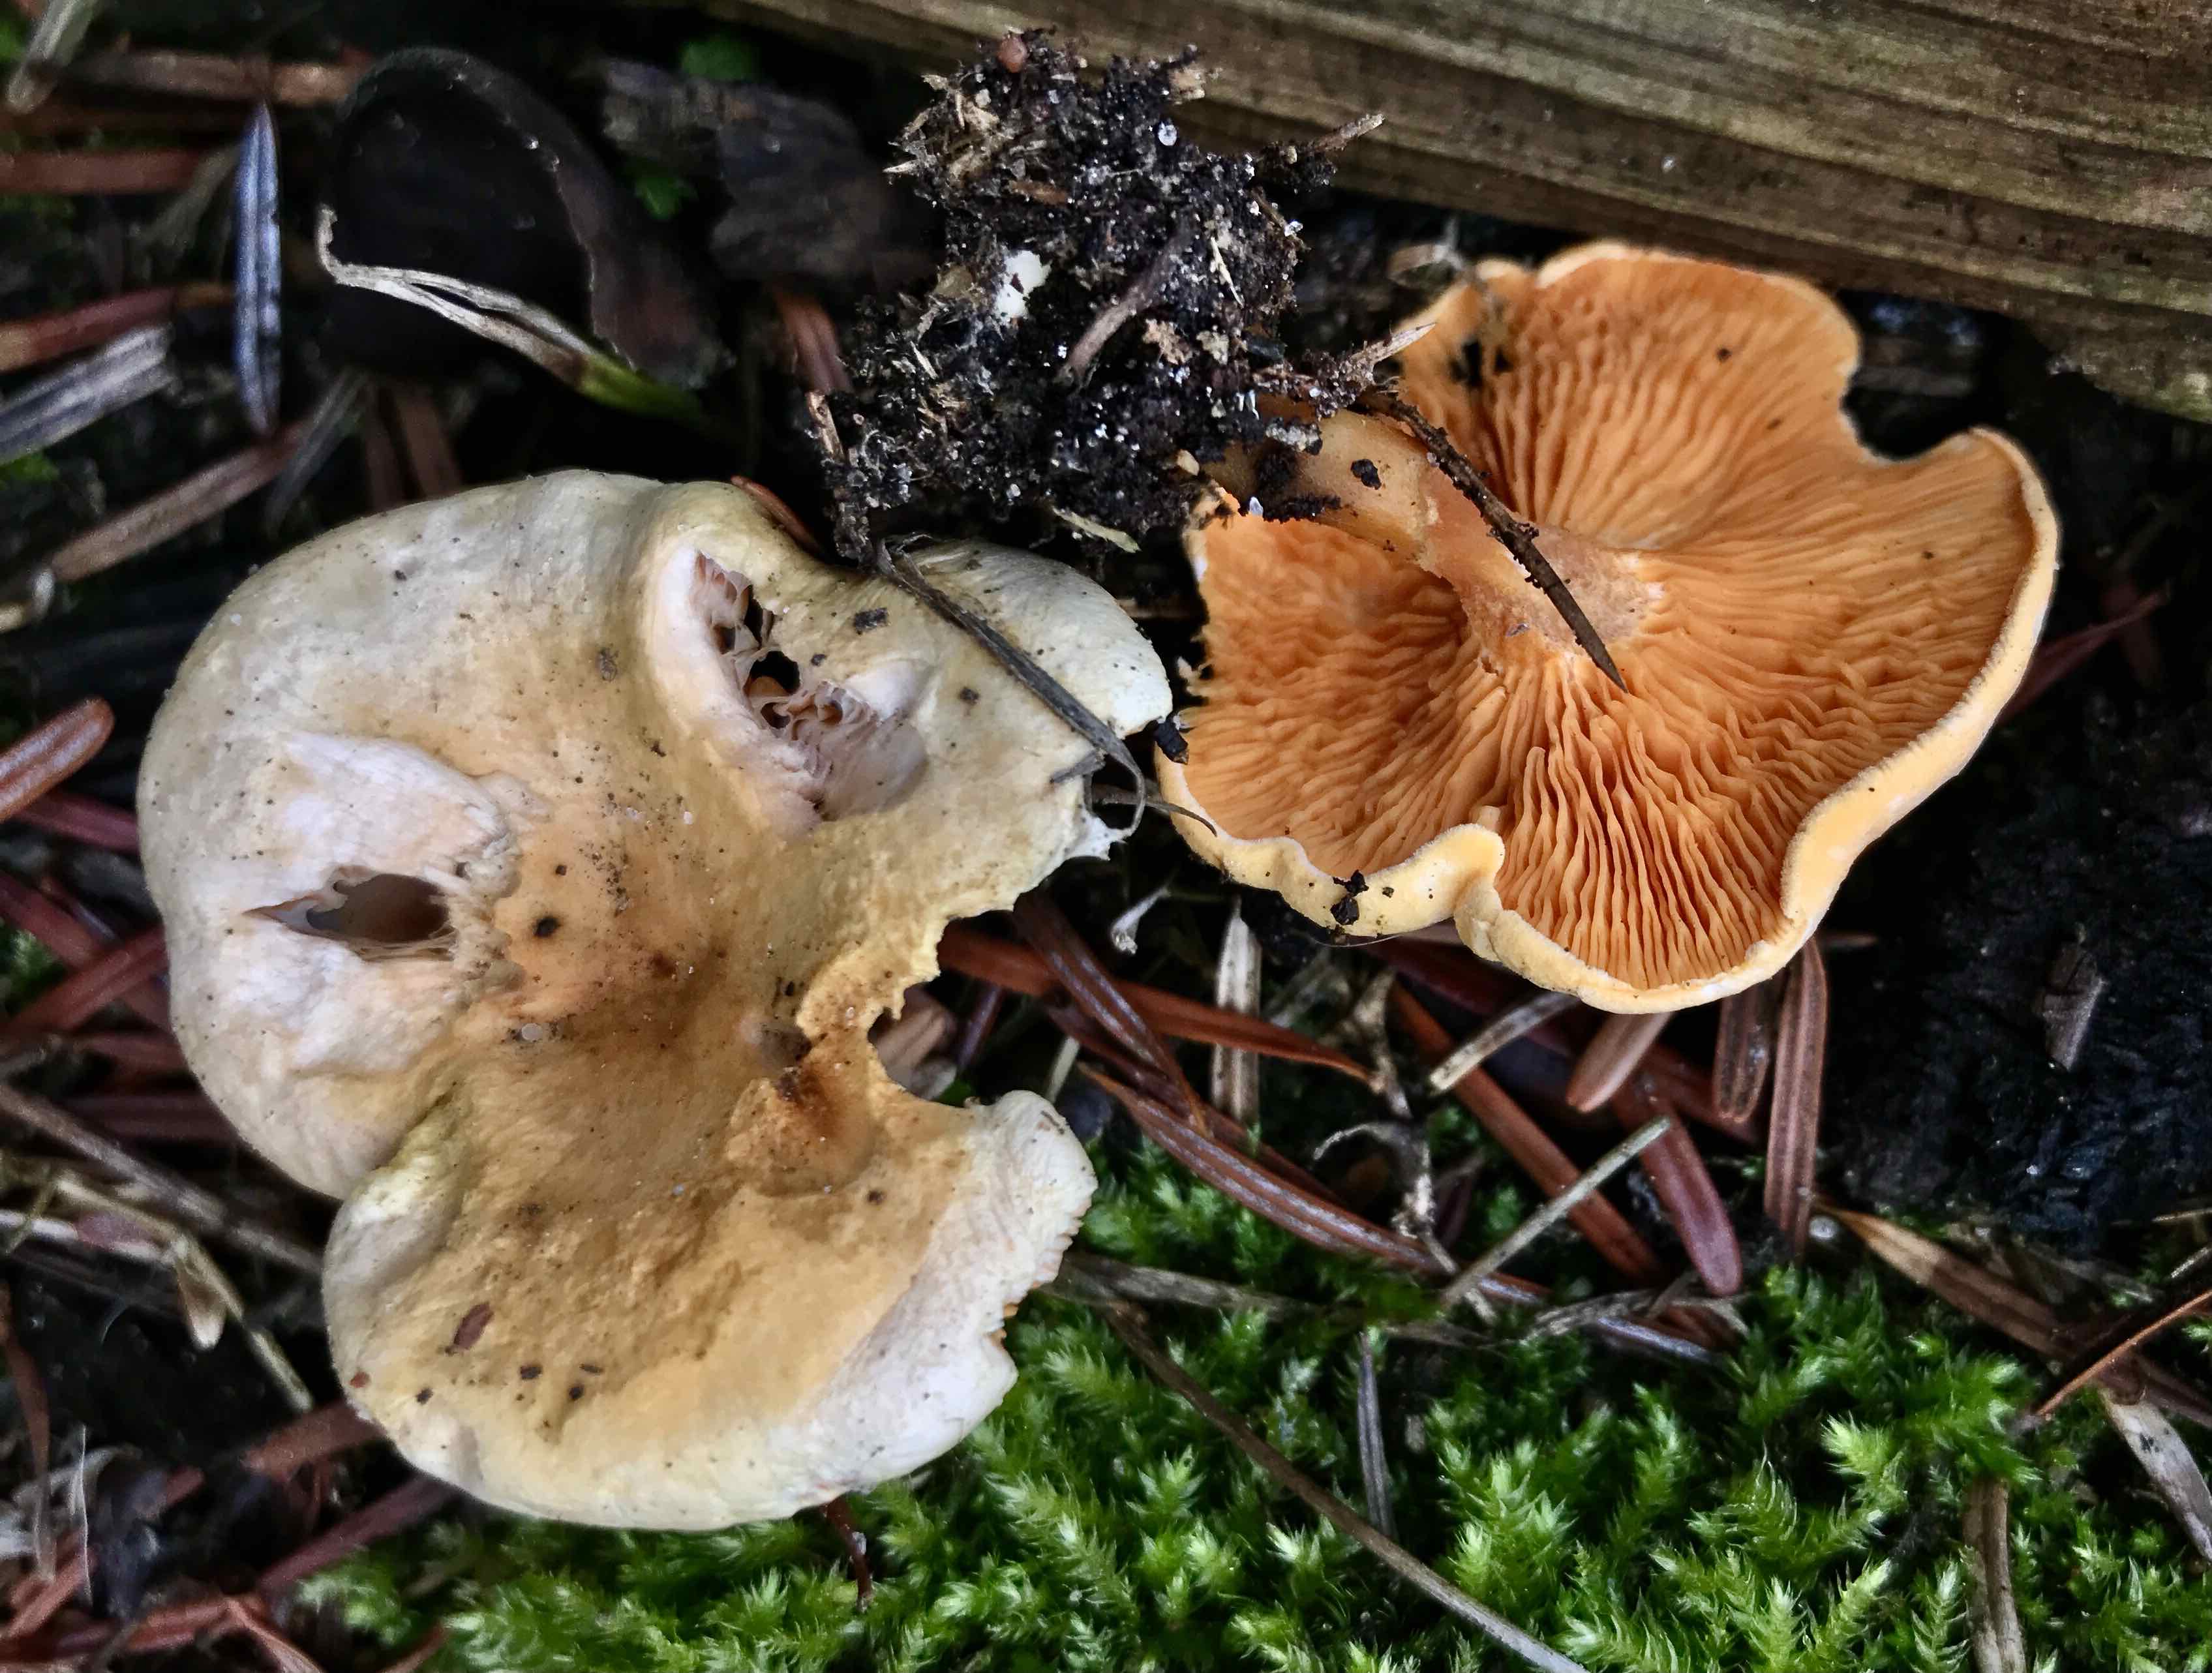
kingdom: Fungi
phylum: Basidiomycota
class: Agaricomycetes
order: Boletales
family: Hygrophoropsidaceae
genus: Hygrophoropsis
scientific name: Hygrophoropsis aurantiaca
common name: almindelig orangekantarel
